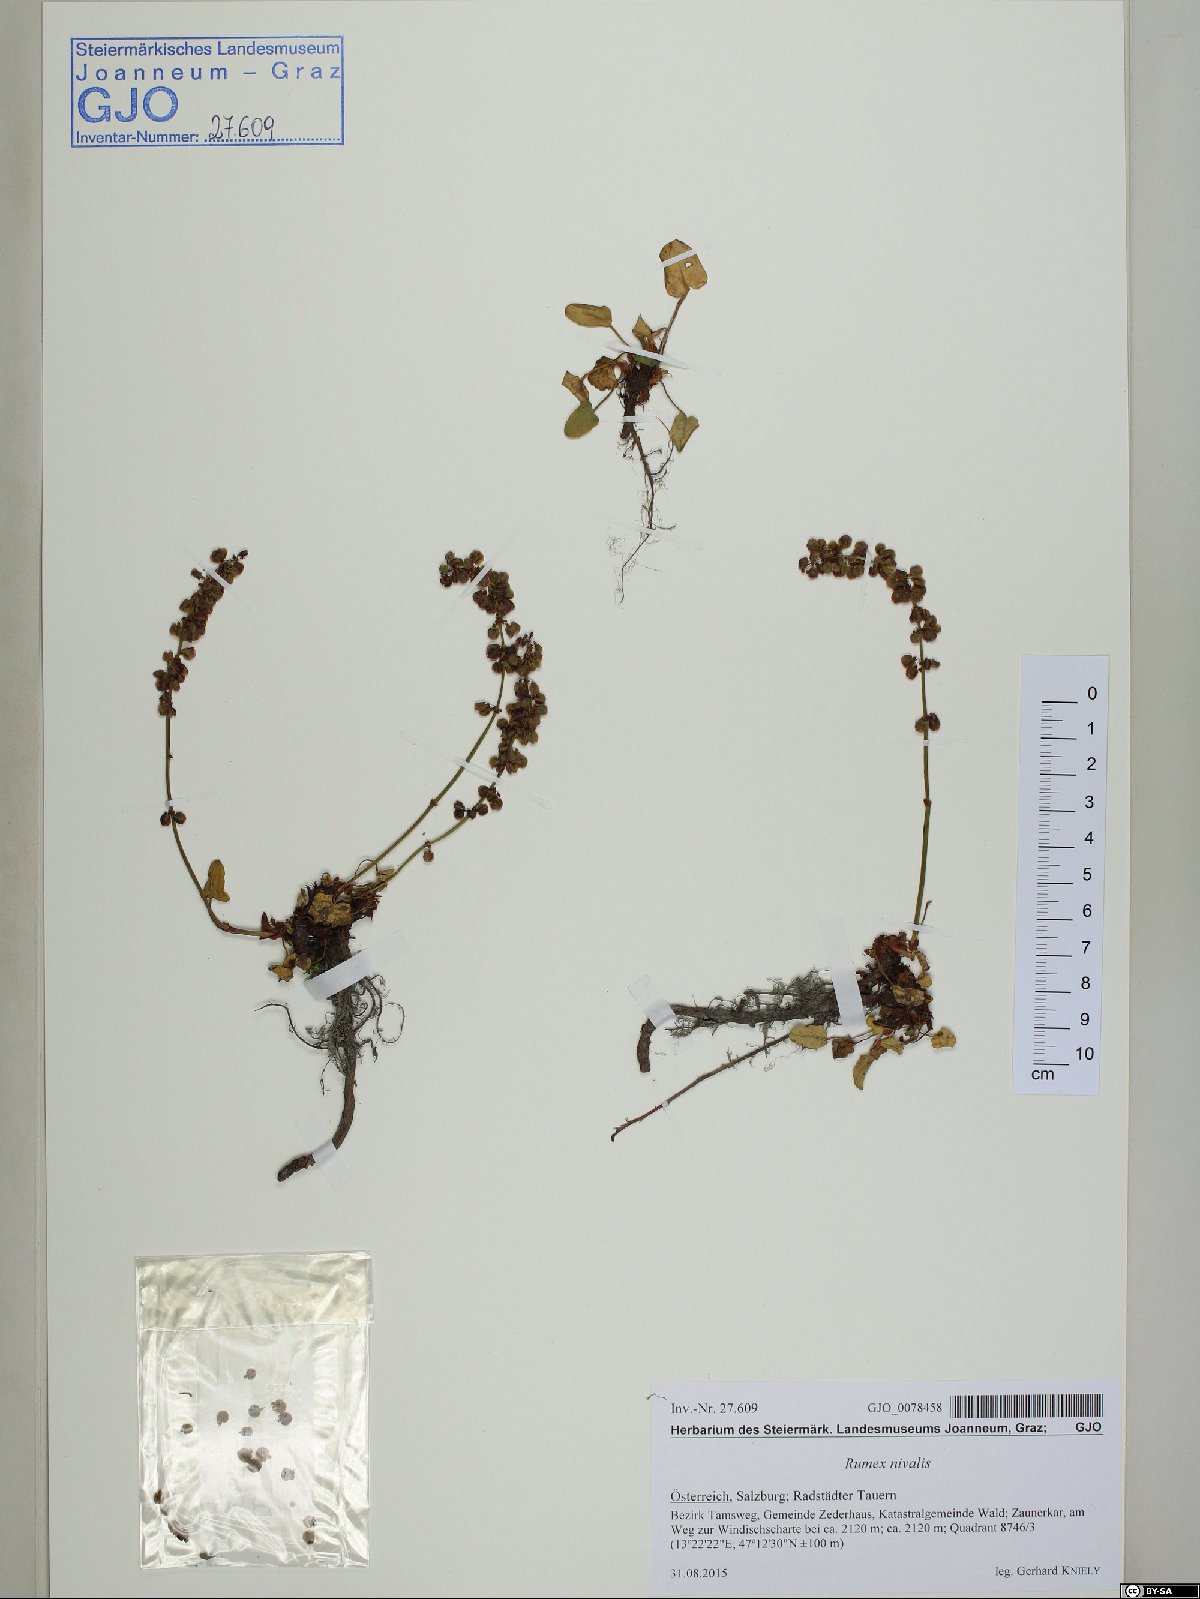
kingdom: Plantae
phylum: Tracheophyta
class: Magnoliopsida
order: Caryophyllales
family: Polygonaceae
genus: Rumex
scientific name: Rumex nivalis
